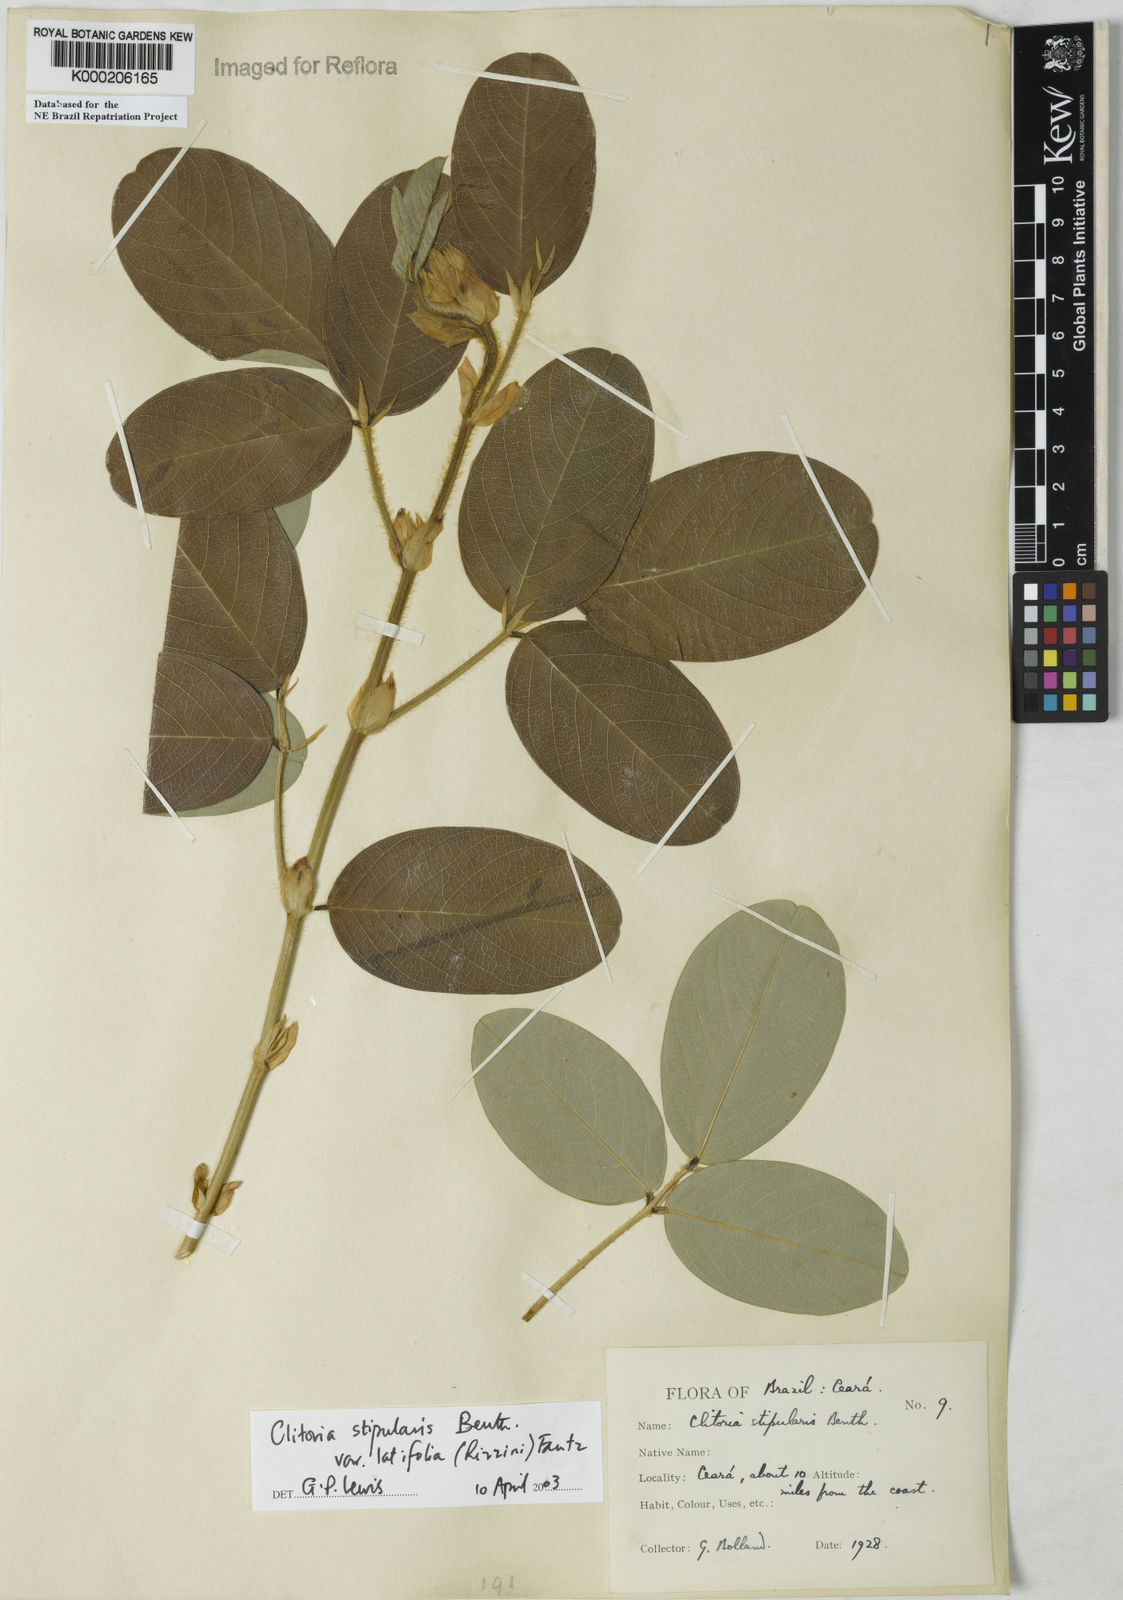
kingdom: Plantae
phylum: Tracheophyta
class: Magnoliopsida
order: Fabales
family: Fabaceae
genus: Clitoria
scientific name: Clitoria stipularis
